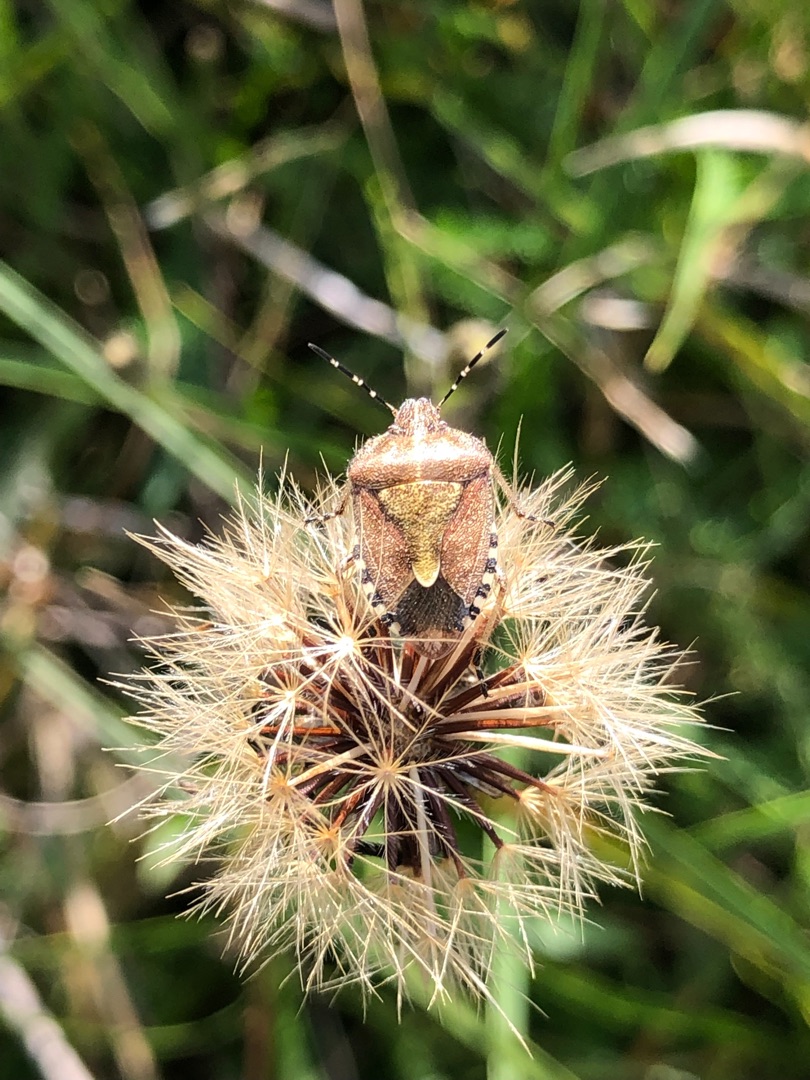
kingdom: Animalia
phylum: Arthropoda
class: Insecta
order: Hemiptera
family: Pentatomidae
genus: Dolycoris
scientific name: Dolycoris baccarum
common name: Almindelig bærtæge
